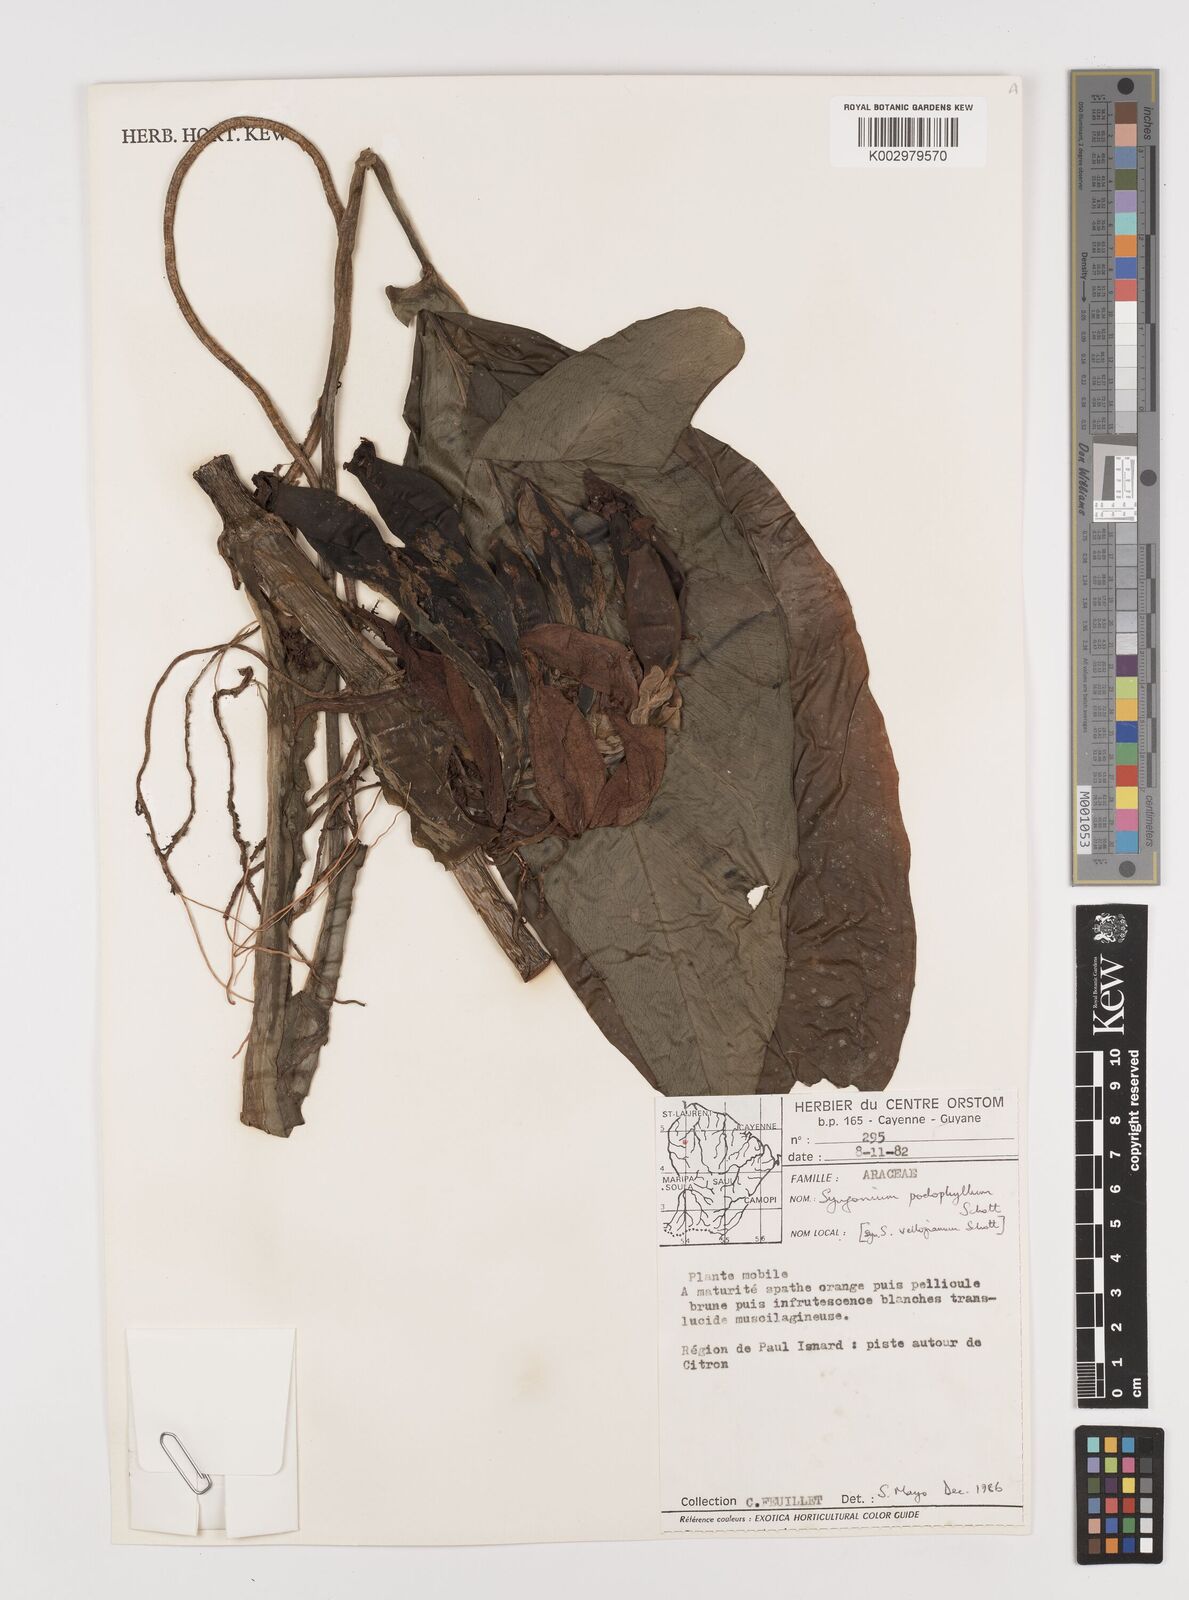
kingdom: Plantae
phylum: Tracheophyta
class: Liliopsida
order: Alismatales
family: Araceae
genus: Syngonium
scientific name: Syngonium podophyllum
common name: American evergreen
